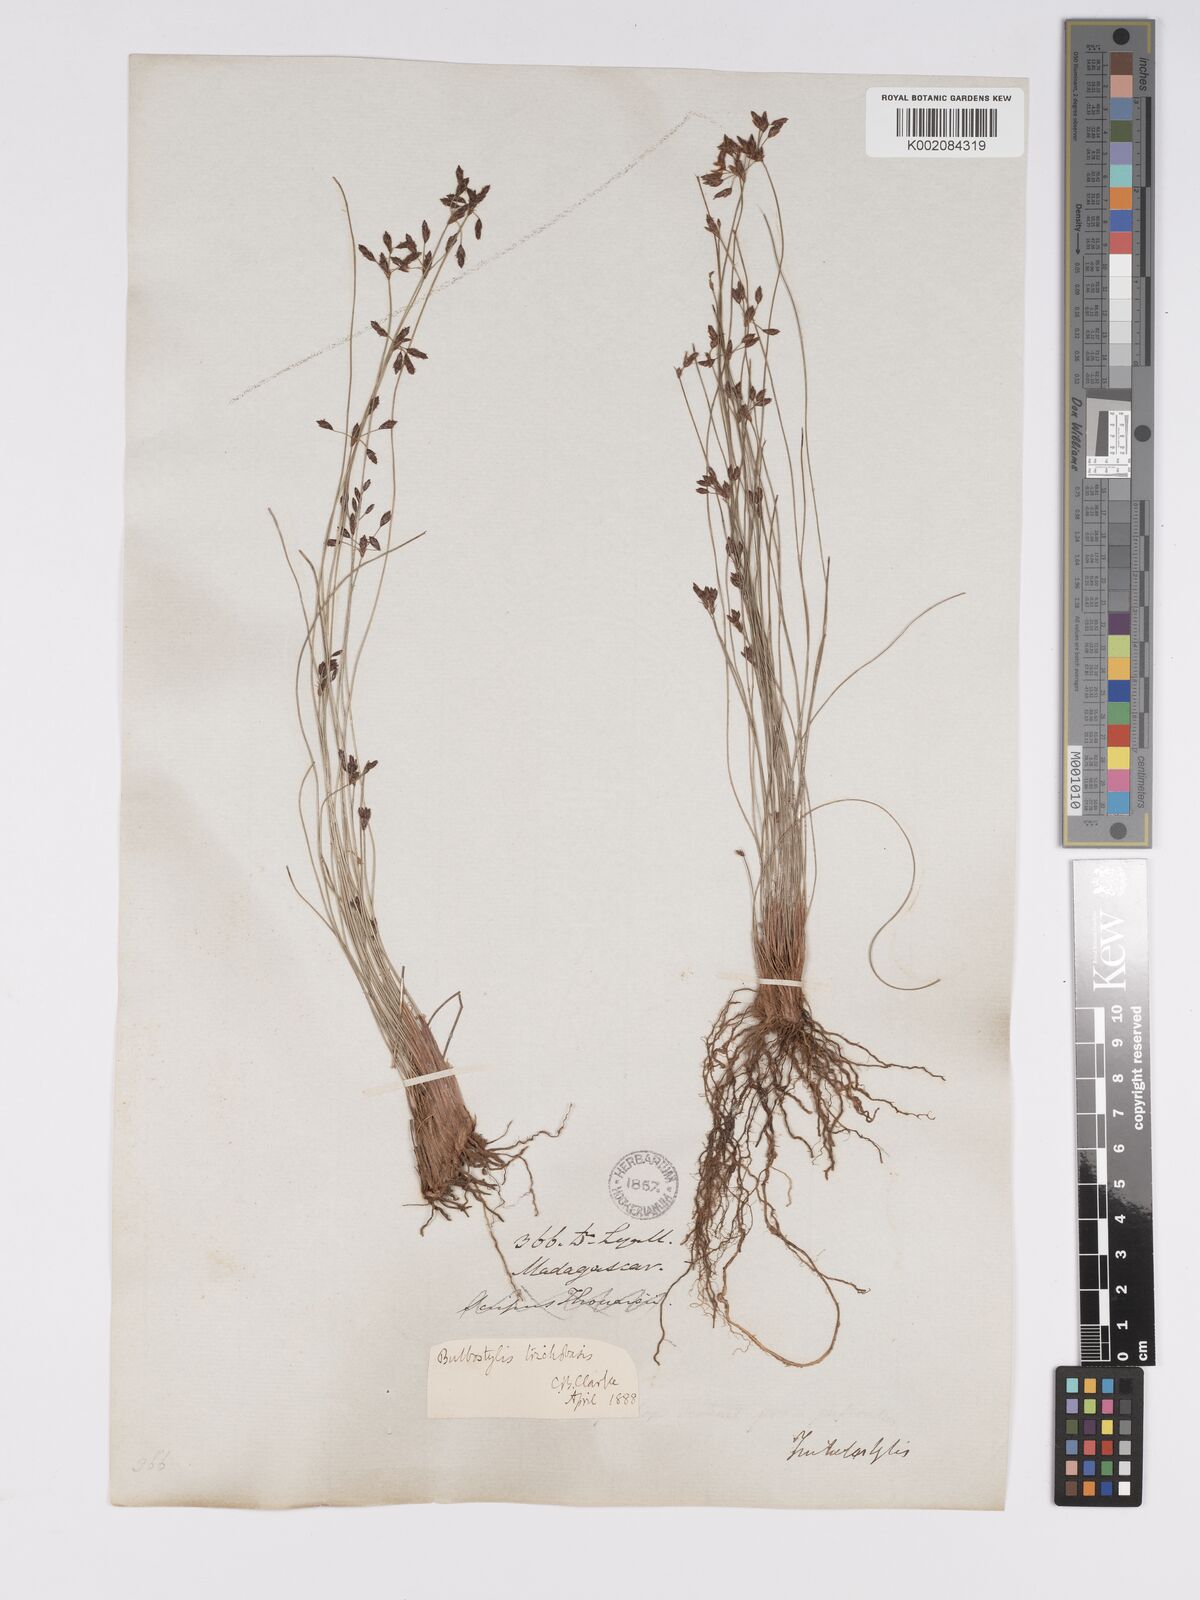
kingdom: Plantae
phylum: Tracheophyta
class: Liliopsida
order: Poales
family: Cyperaceae
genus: Bulbostylis
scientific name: Bulbostylis trichobasis
